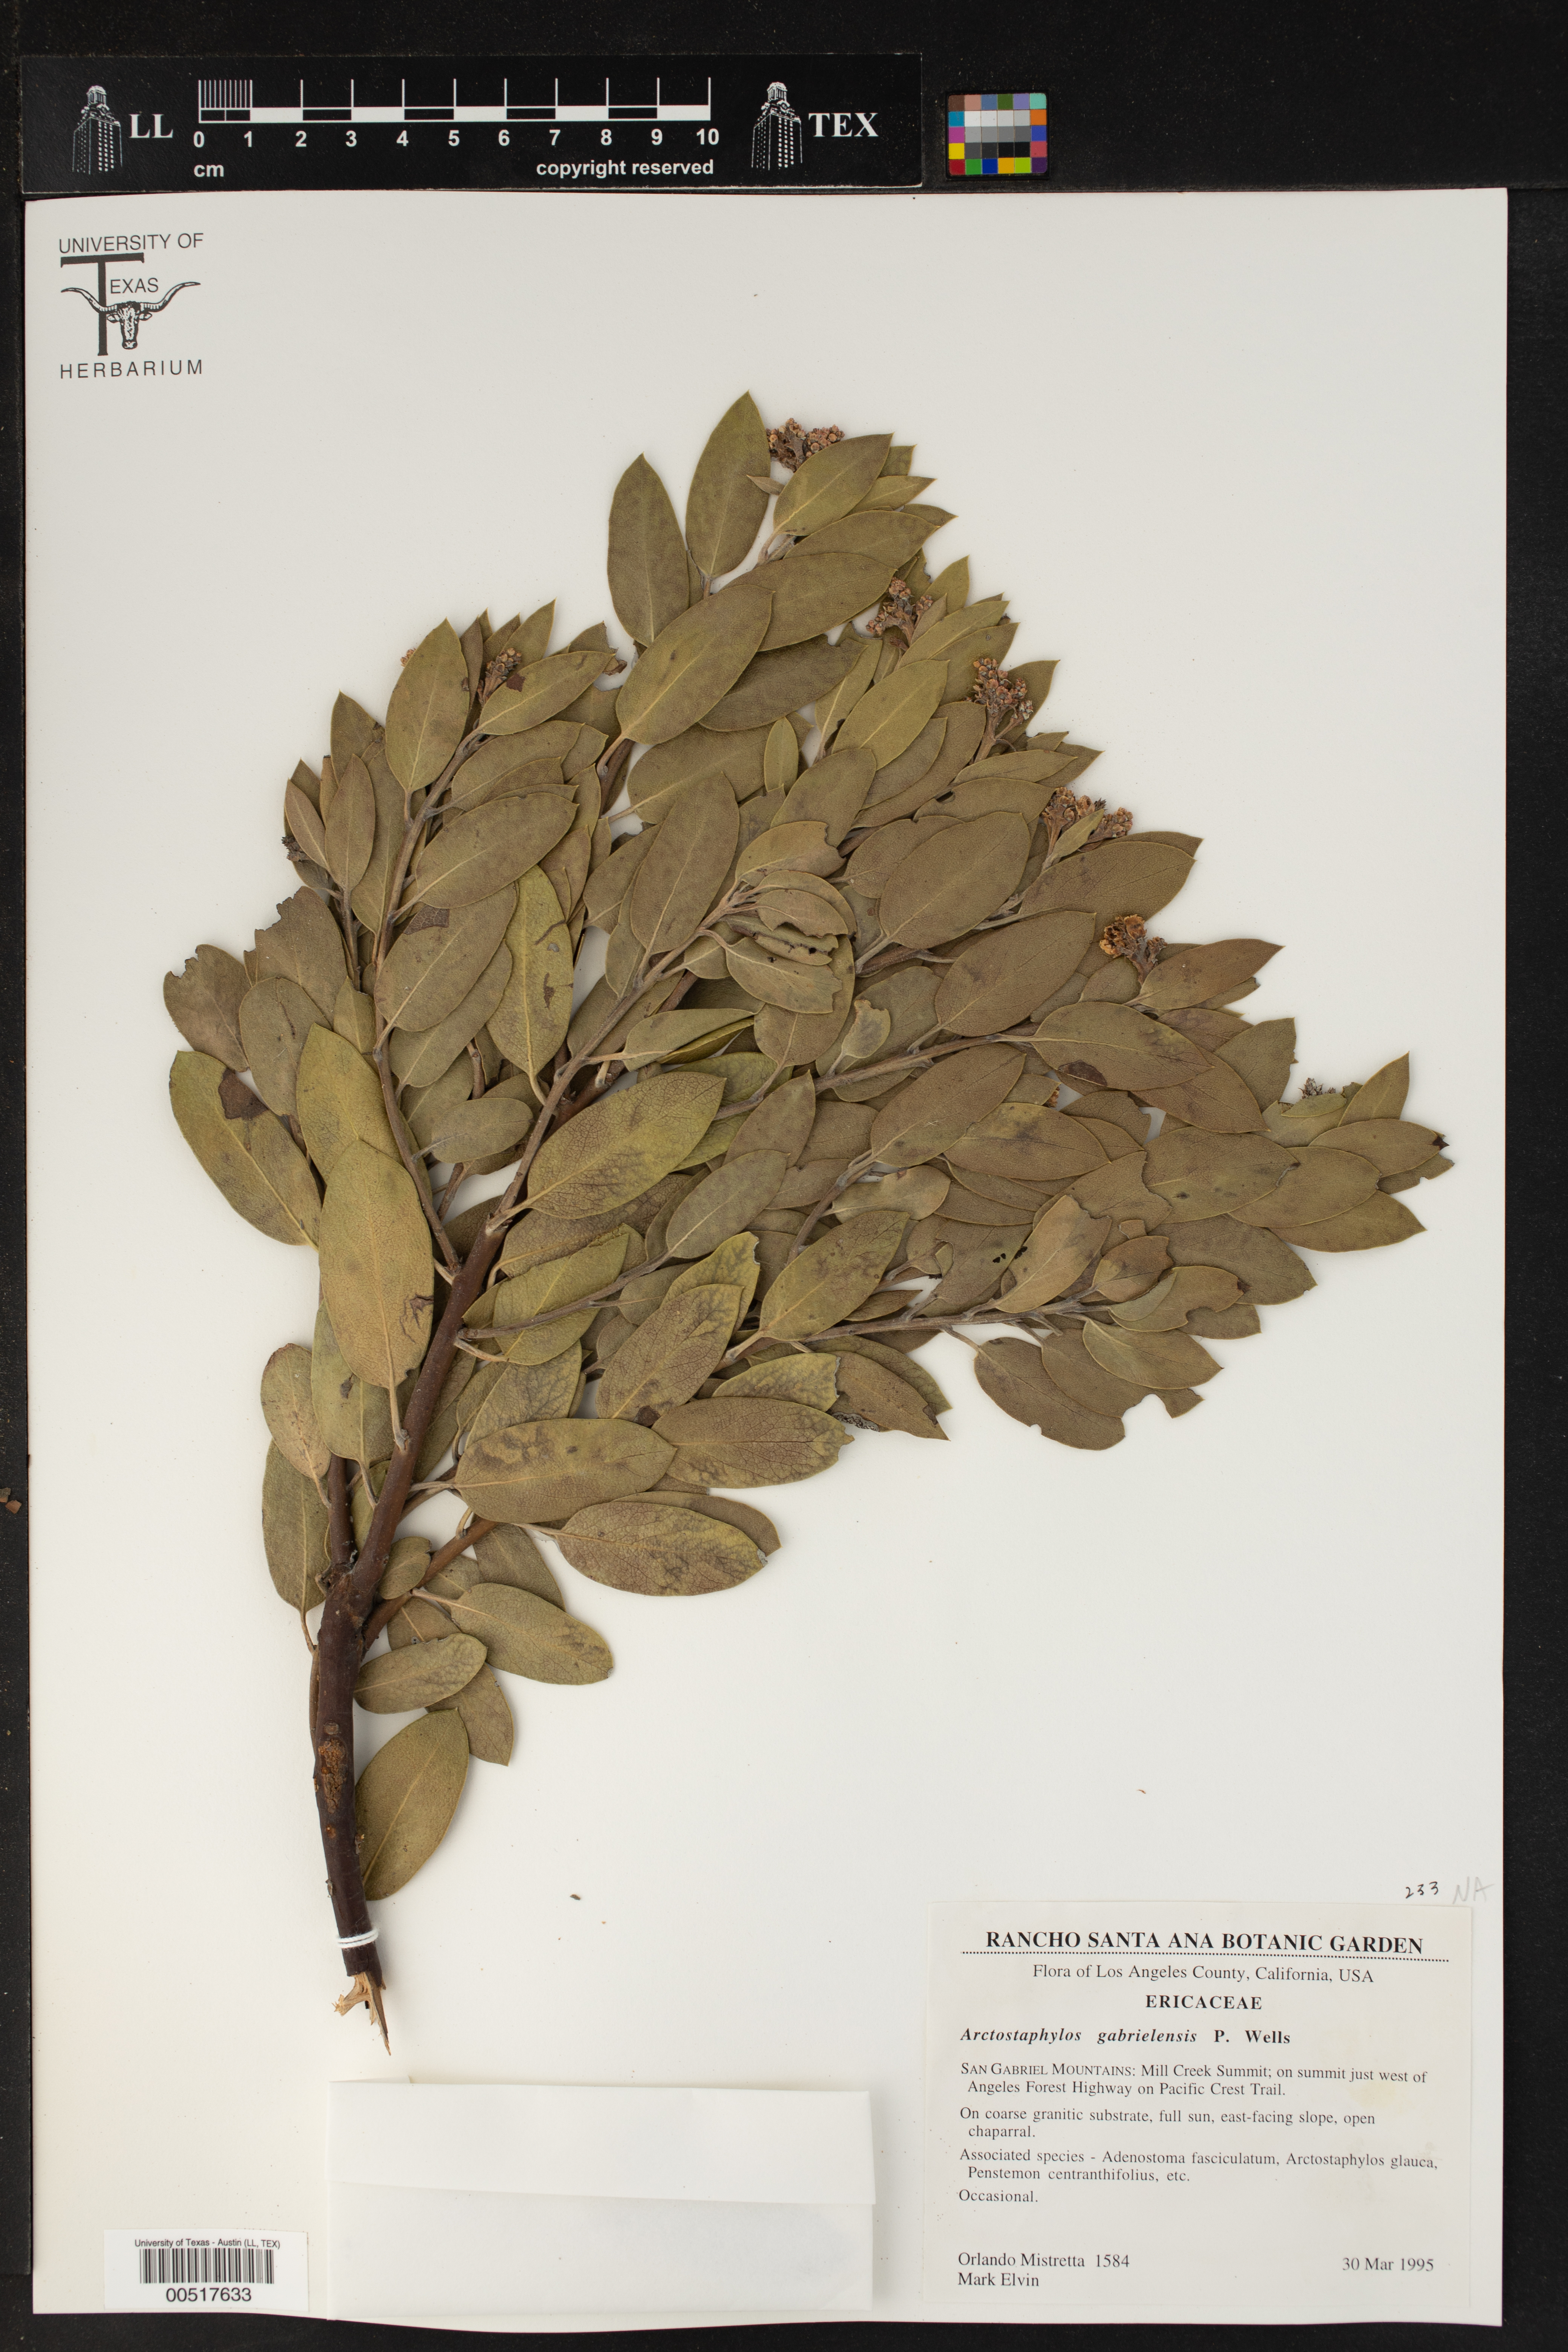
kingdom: Plantae
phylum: Tracheophyta
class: Magnoliopsida
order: Ericales
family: Ericaceae
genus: Arctostaphylos
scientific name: Arctostaphylos glandulosa
